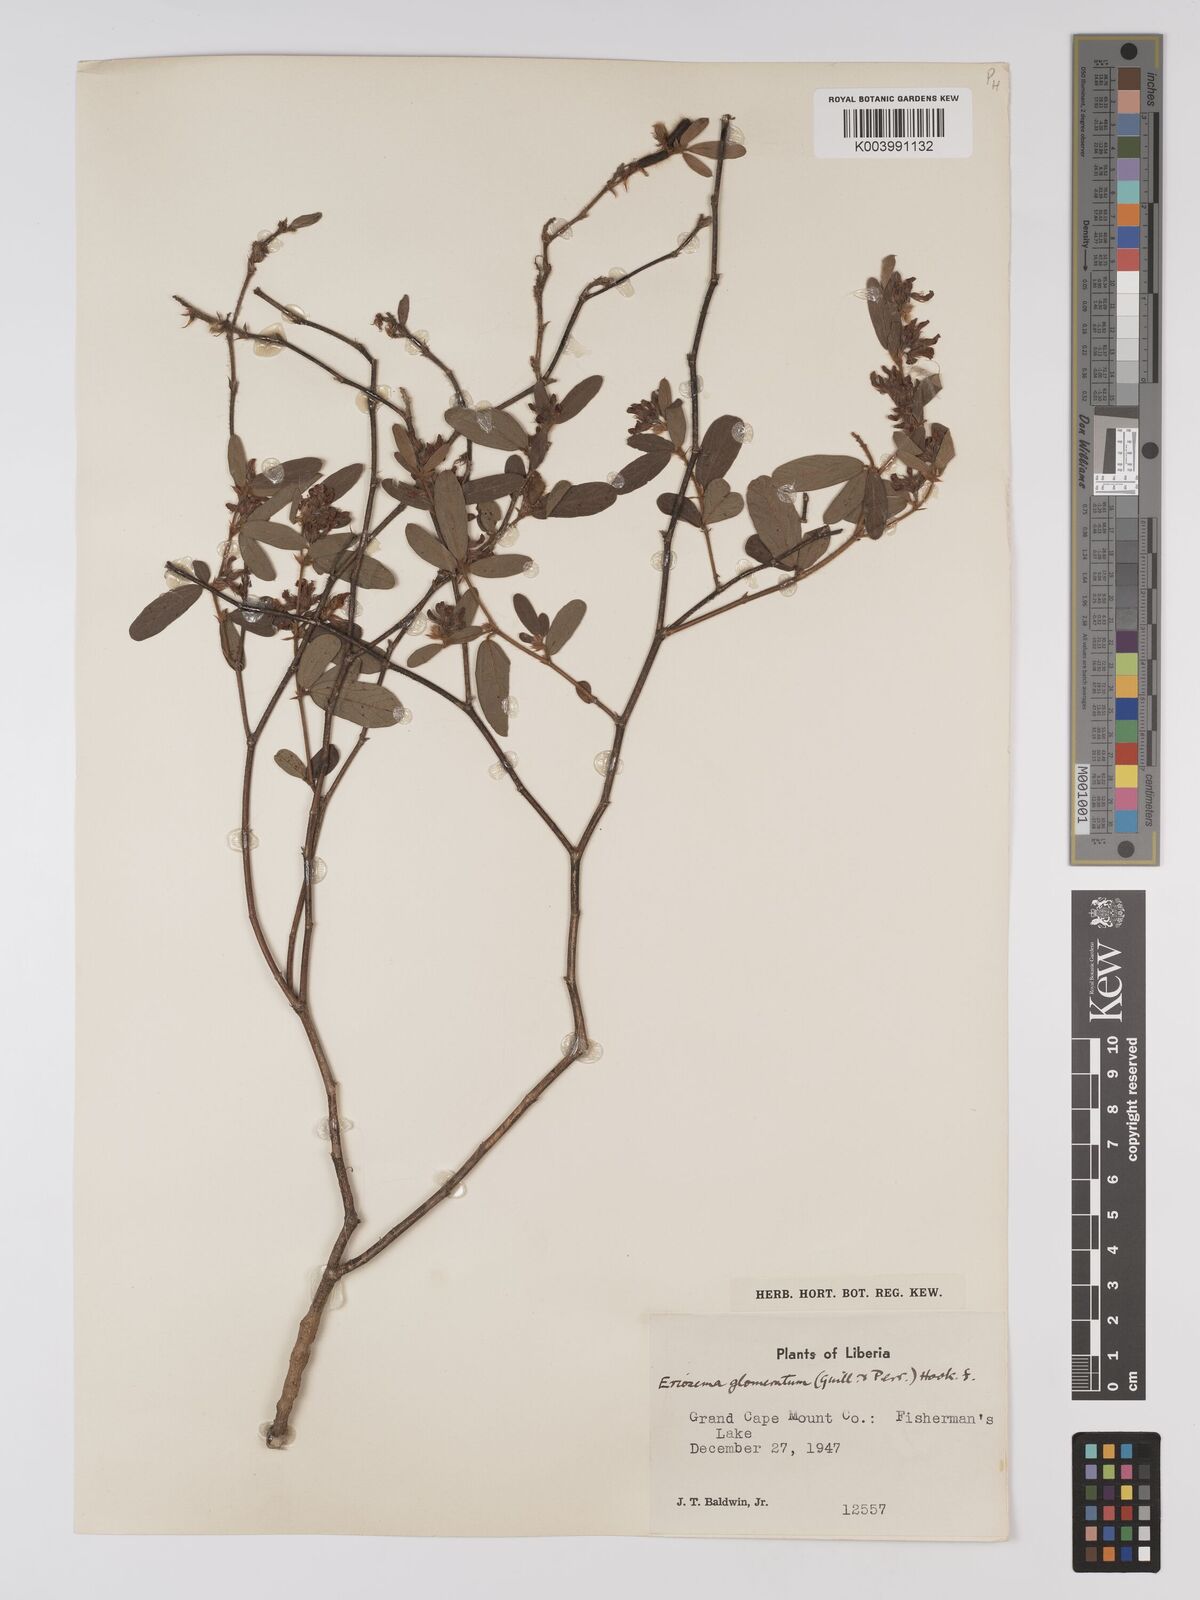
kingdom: Plantae
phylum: Tracheophyta
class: Magnoliopsida
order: Fabales
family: Fabaceae
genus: Eriosema
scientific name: Eriosema glomeratum
